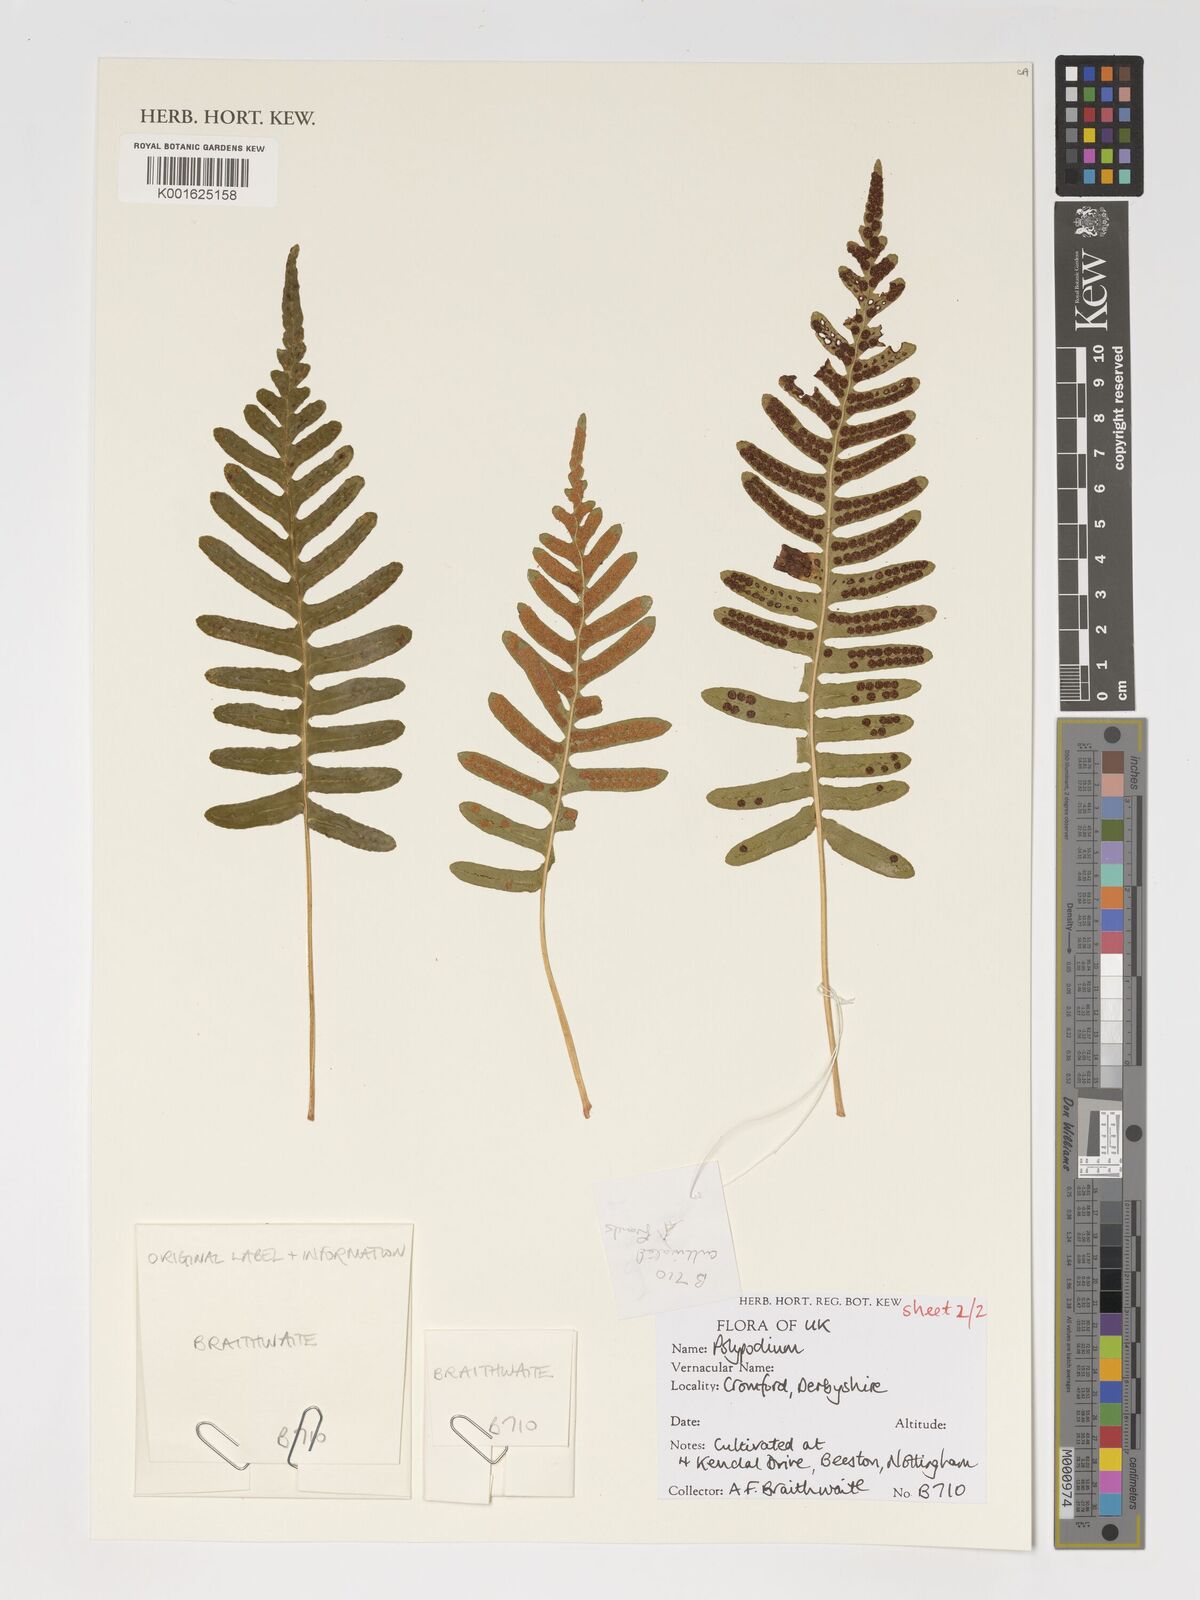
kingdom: Plantae
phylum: Tracheophyta
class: Polypodiopsida
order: Polypodiales
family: Polypodiaceae
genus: Polypodium
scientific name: Polypodium
